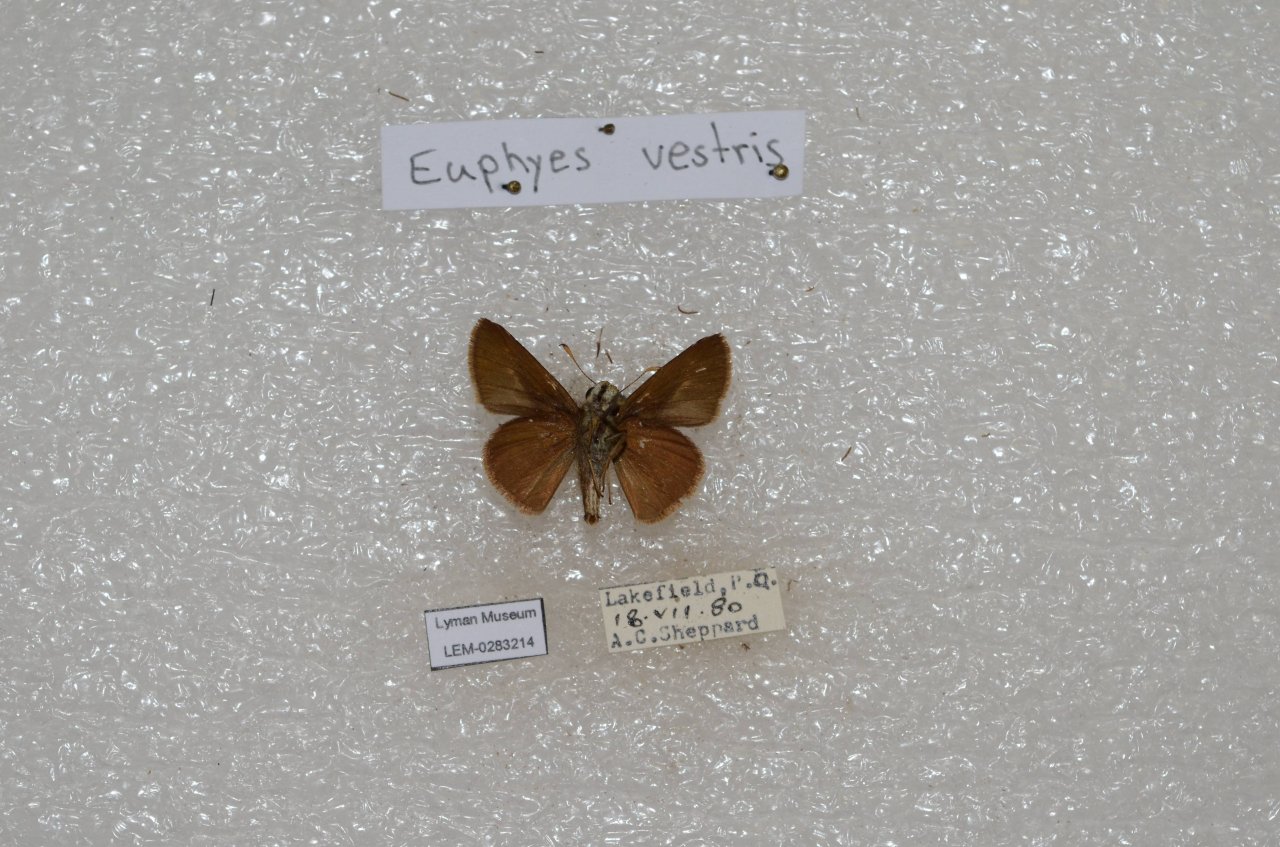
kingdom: Animalia
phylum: Arthropoda
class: Insecta
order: Lepidoptera
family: Hesperiidae
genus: Euphyes
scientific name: Euphyes vestris
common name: Dun Skipper
